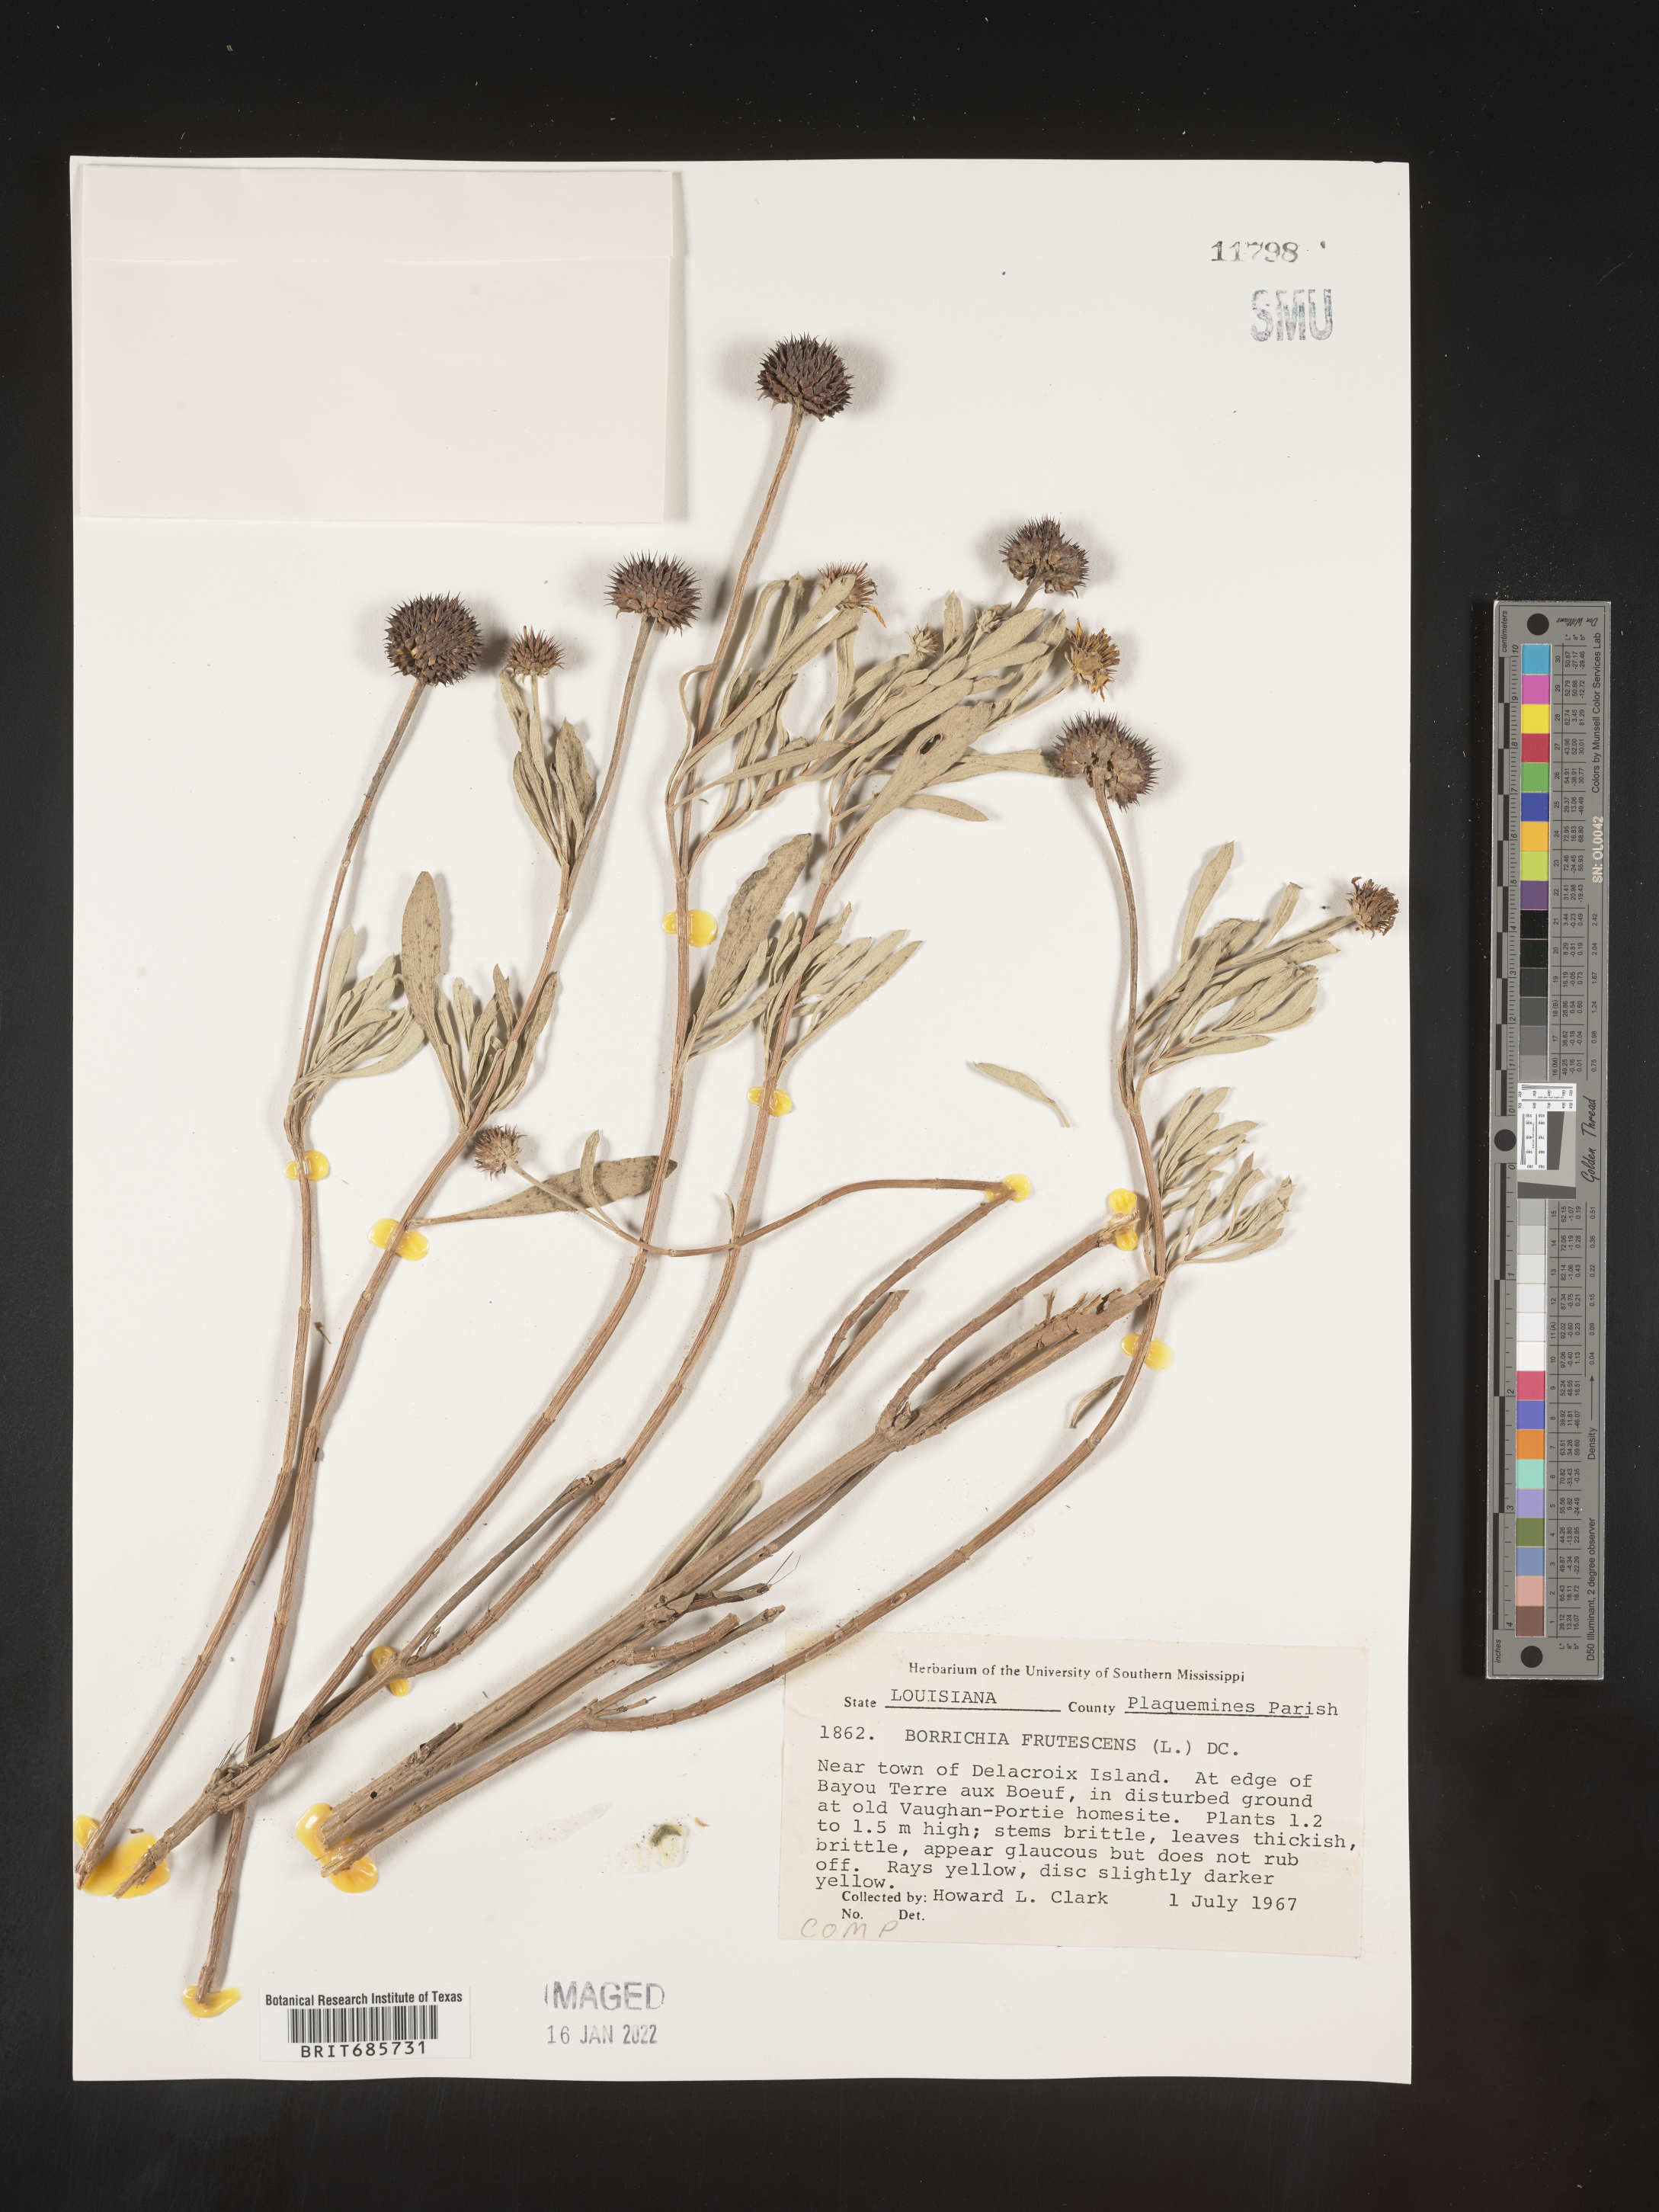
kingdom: Plantae
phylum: Tracheophyta
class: Magnoliopsida
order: Asterales
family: Asteraceae
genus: Borrichia
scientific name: Borrichia frutescens
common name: Sea oxeye
